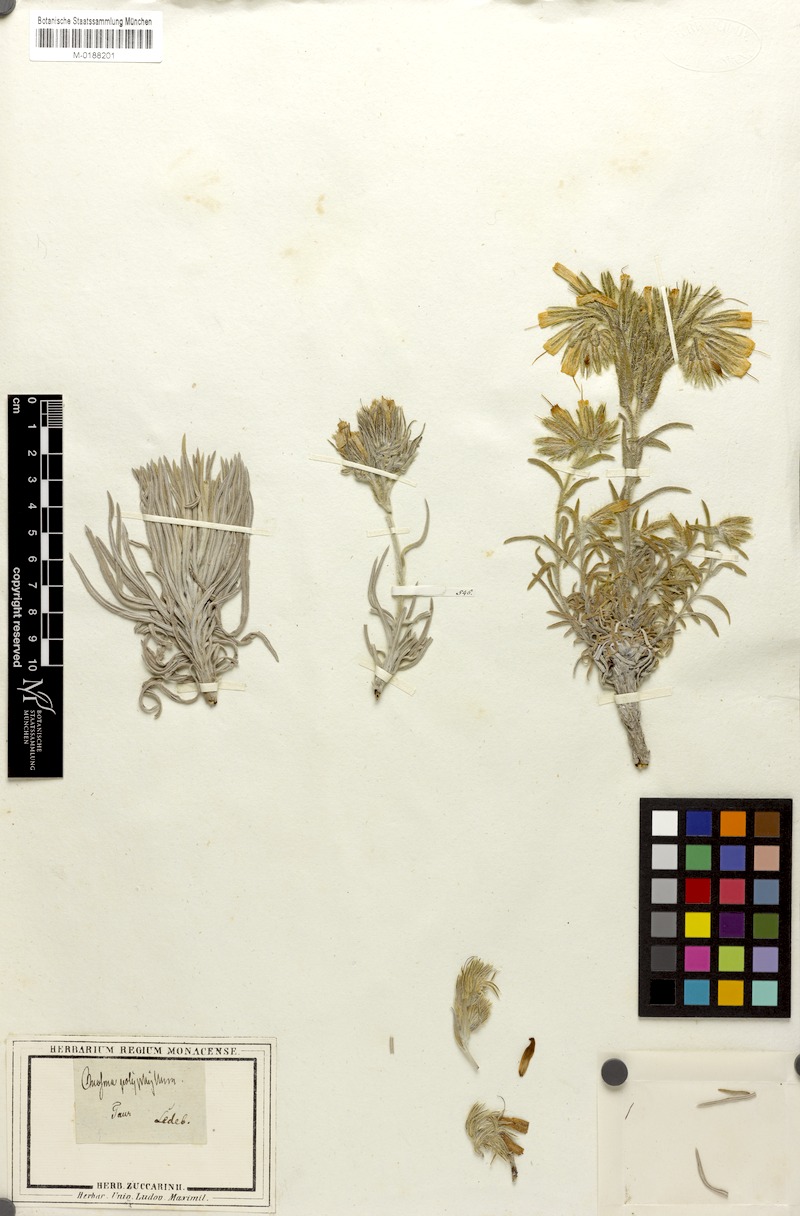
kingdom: Plantae
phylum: Tracheophyta
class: Magnoliopsida
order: Boraginales
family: Boraginaceae
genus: Onosma
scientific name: Onosma polyphylla
